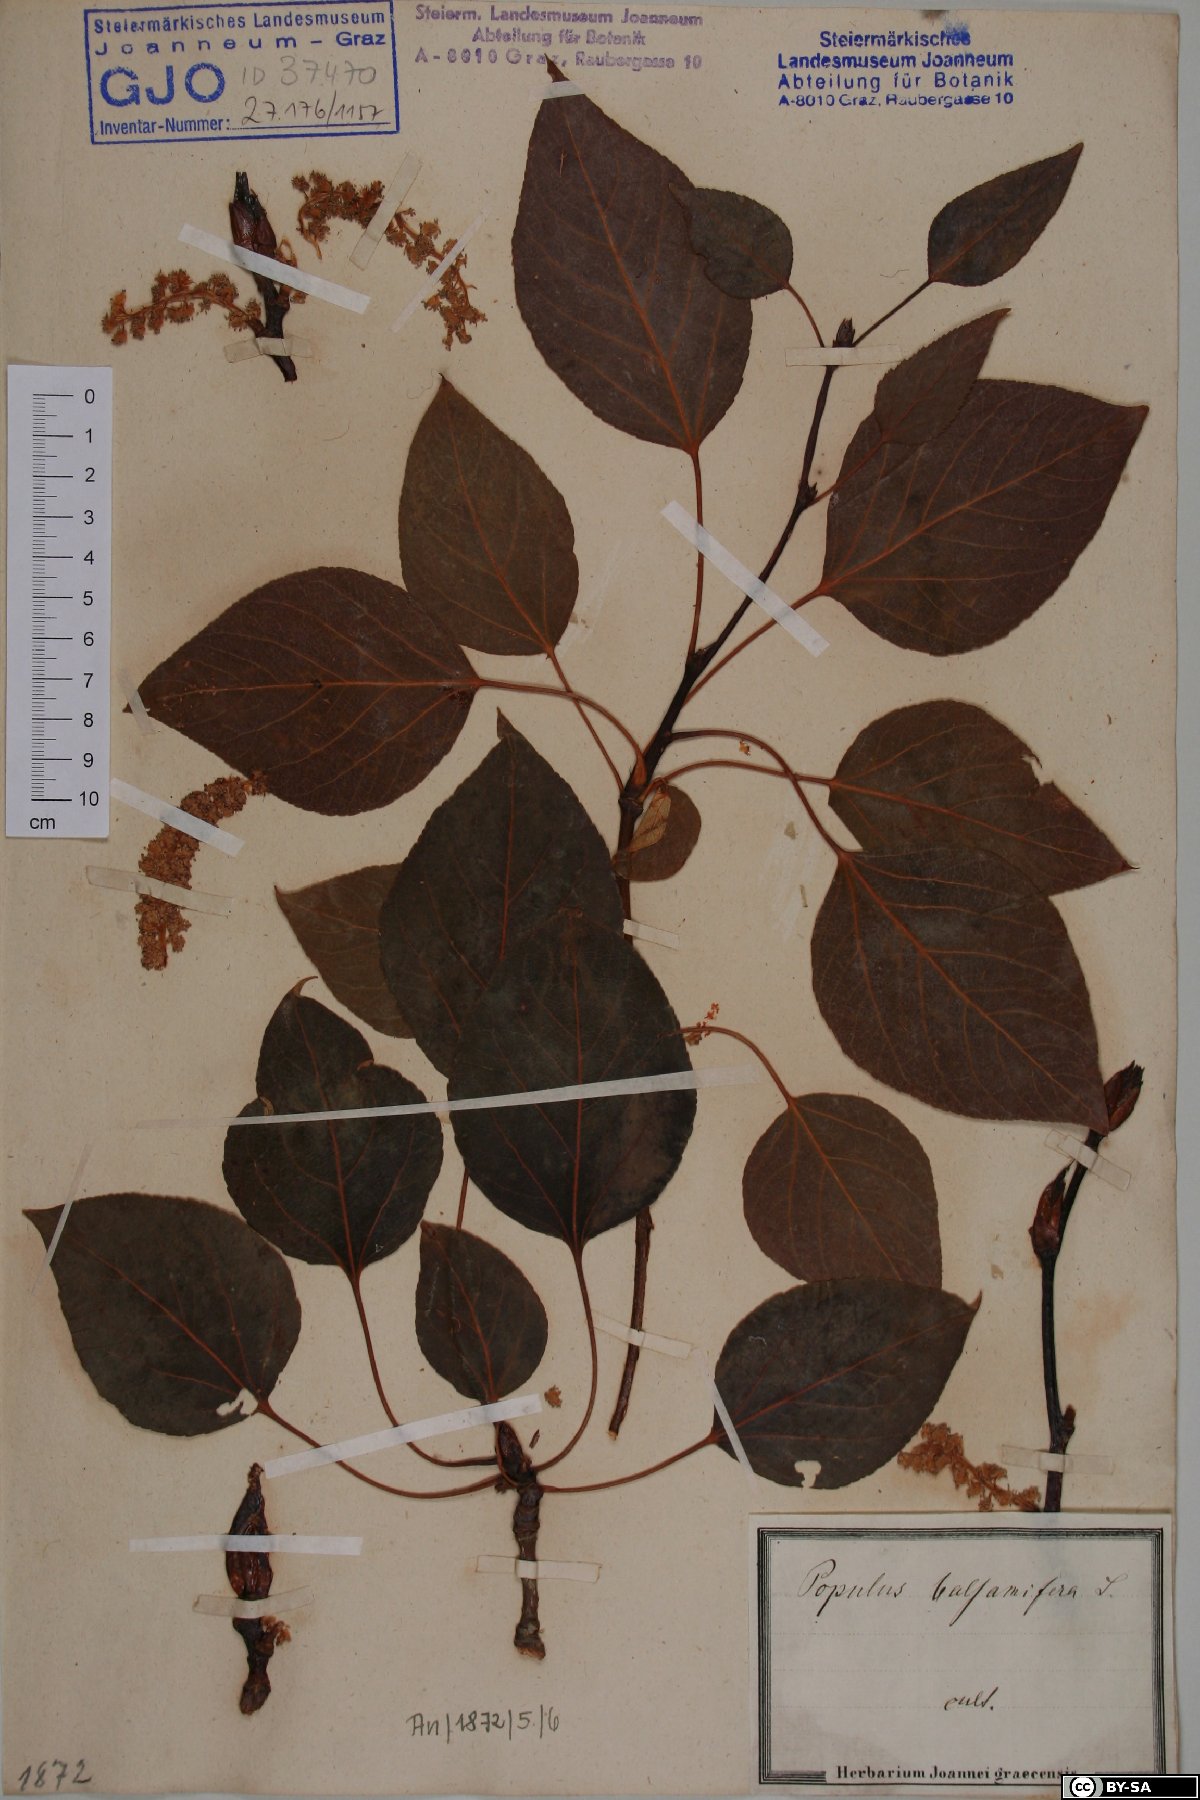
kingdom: Plantae
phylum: Tracheophyta
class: Magnoliopsida
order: Malpighiales
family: Salicaceae
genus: Populus
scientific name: Populus balsamifera
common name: Balsam poplar
